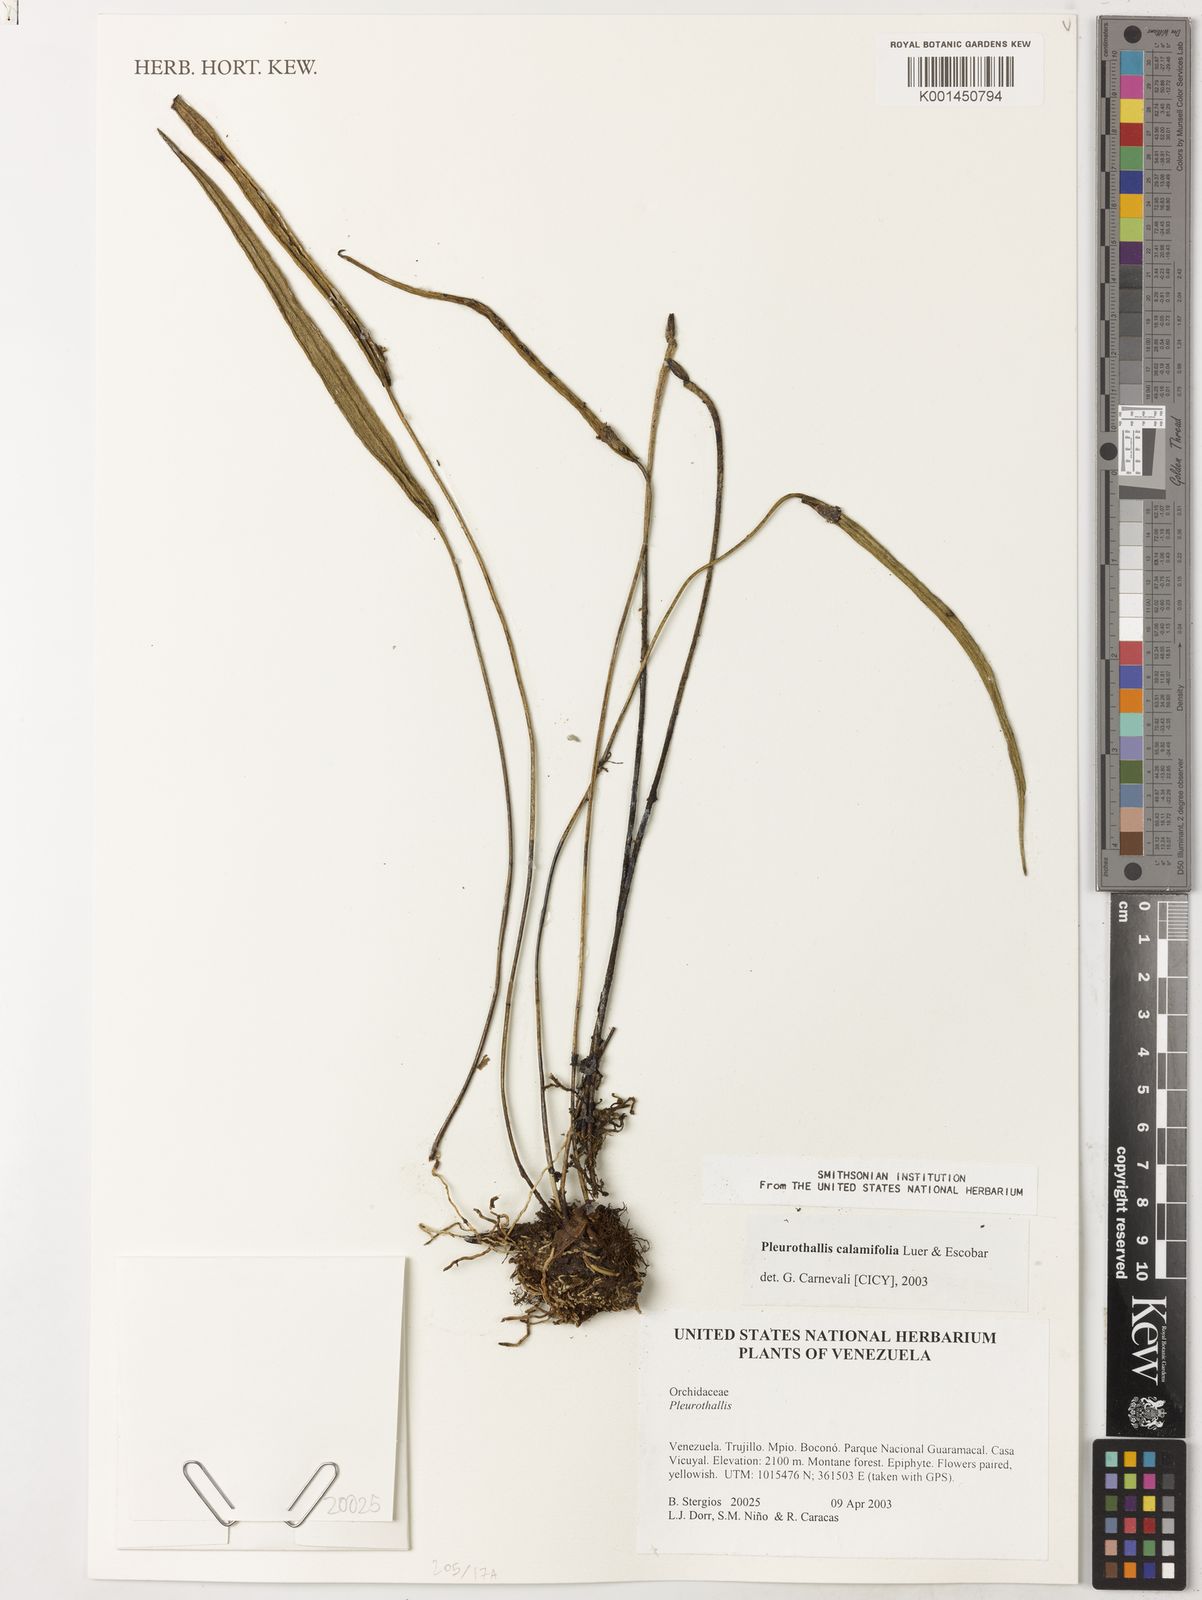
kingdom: Plantae
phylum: Tracheophyta
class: Liliopsida
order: Asparagales
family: Orchidaceae
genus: Pleurothallis
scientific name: Pleurothallis calamifolia
